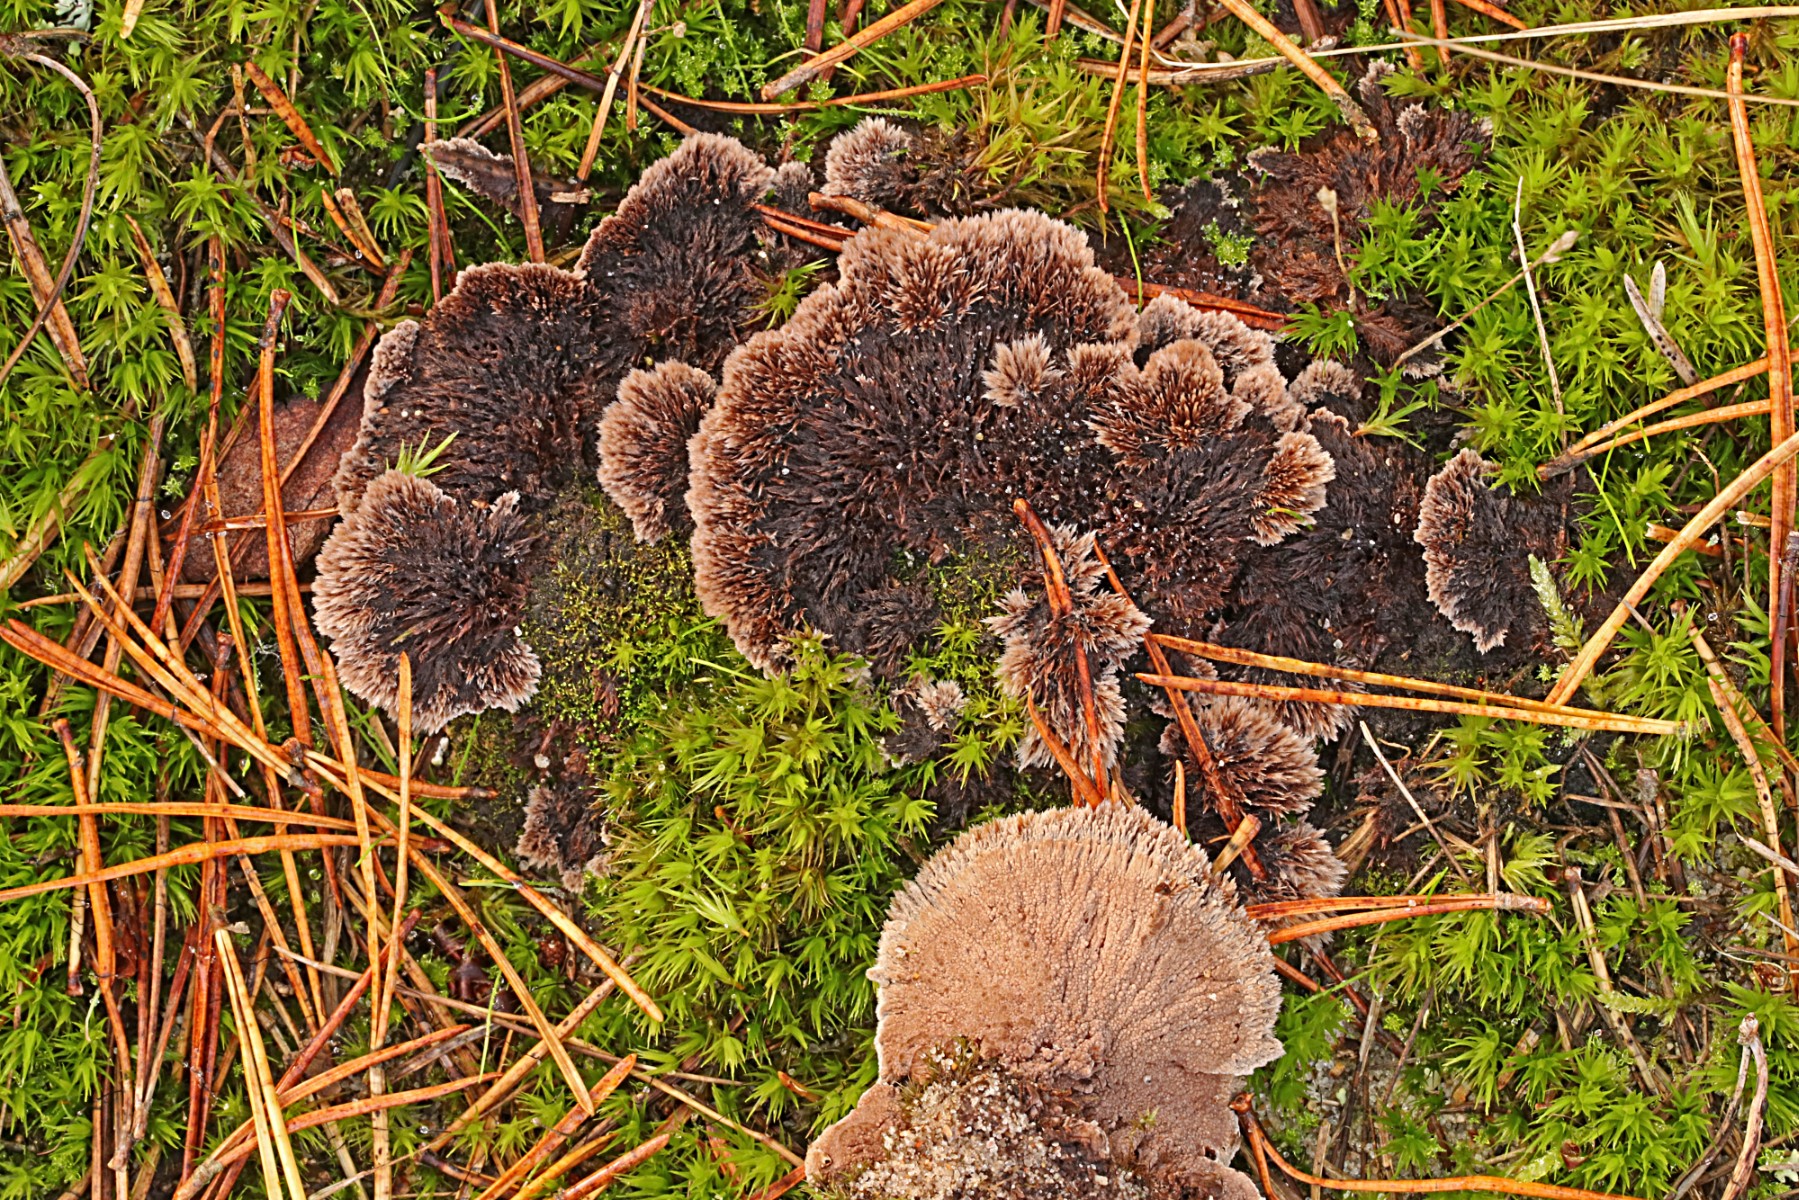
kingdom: Fungi
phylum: Basidiomycota
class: Agaricomycetes
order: Thelephorales
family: Thelephoraceae
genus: Thelephora
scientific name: Thelephora terrestris
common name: fliget frynsesvamp
